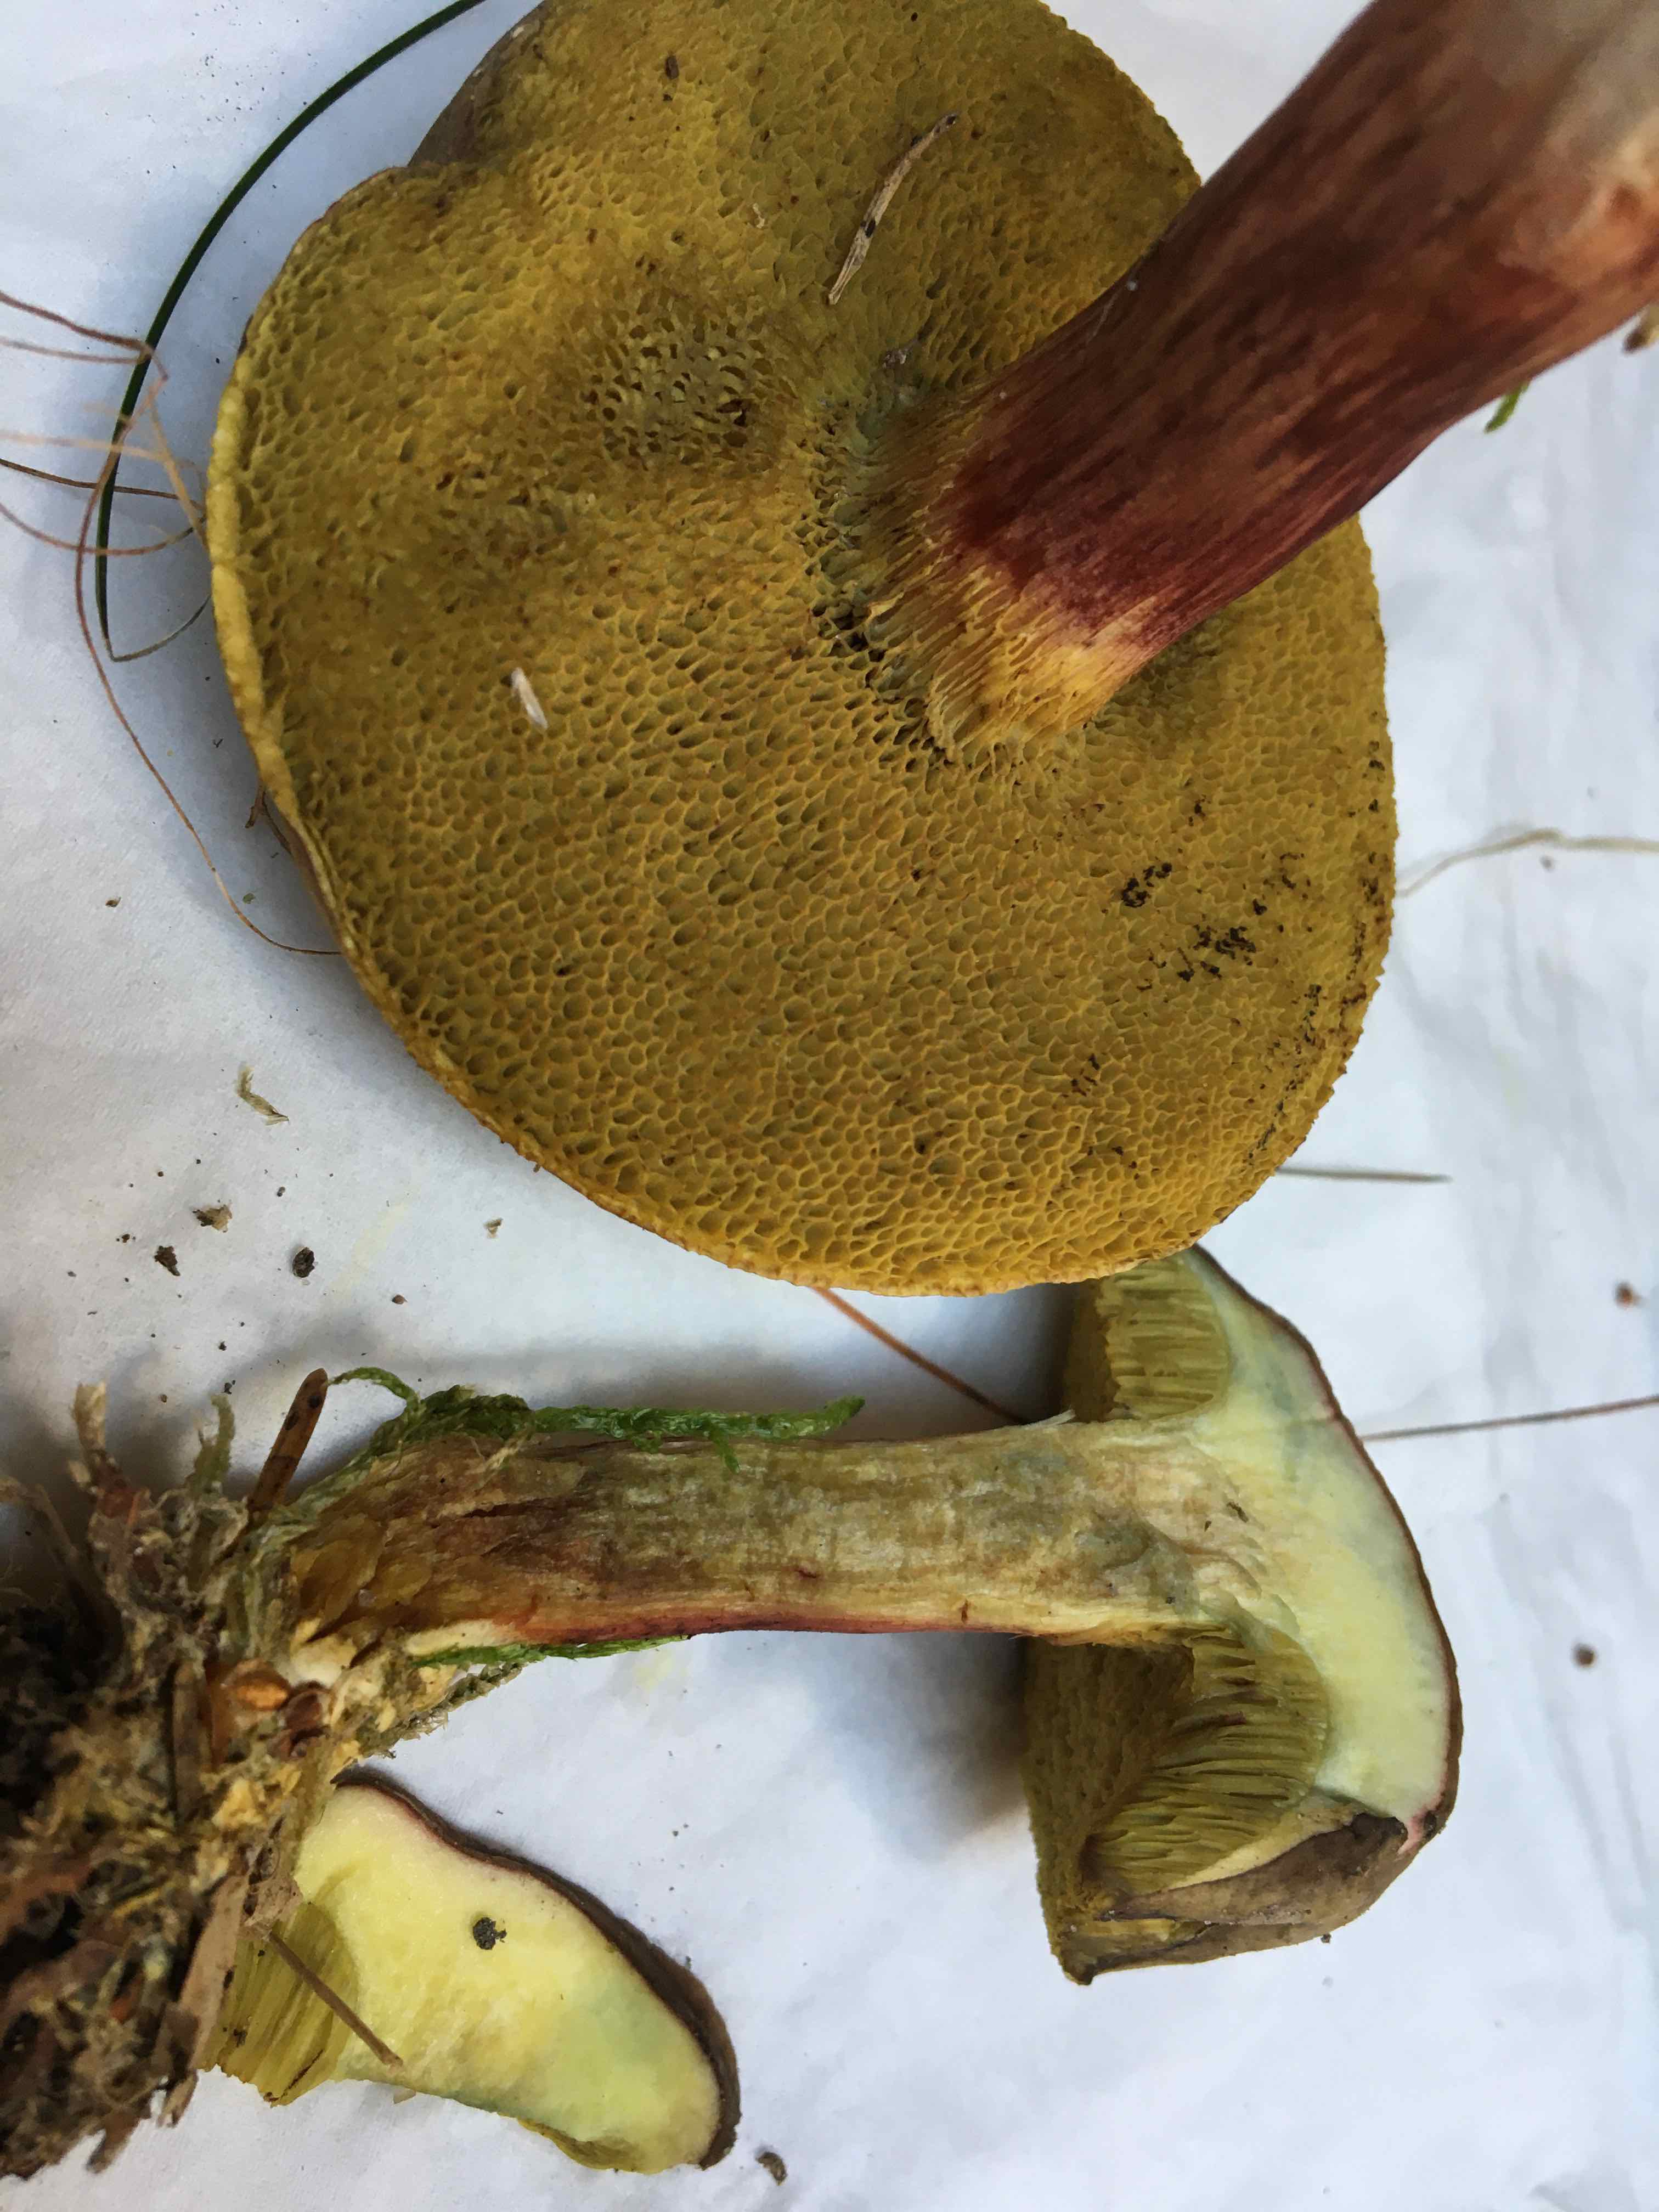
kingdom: Fungi
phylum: Basidiomycota
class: Agaricomycetes
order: Boletales
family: Boletaceae
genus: Xerocomellus
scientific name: Xerocomellus pruinatus
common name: dugget rørhat
